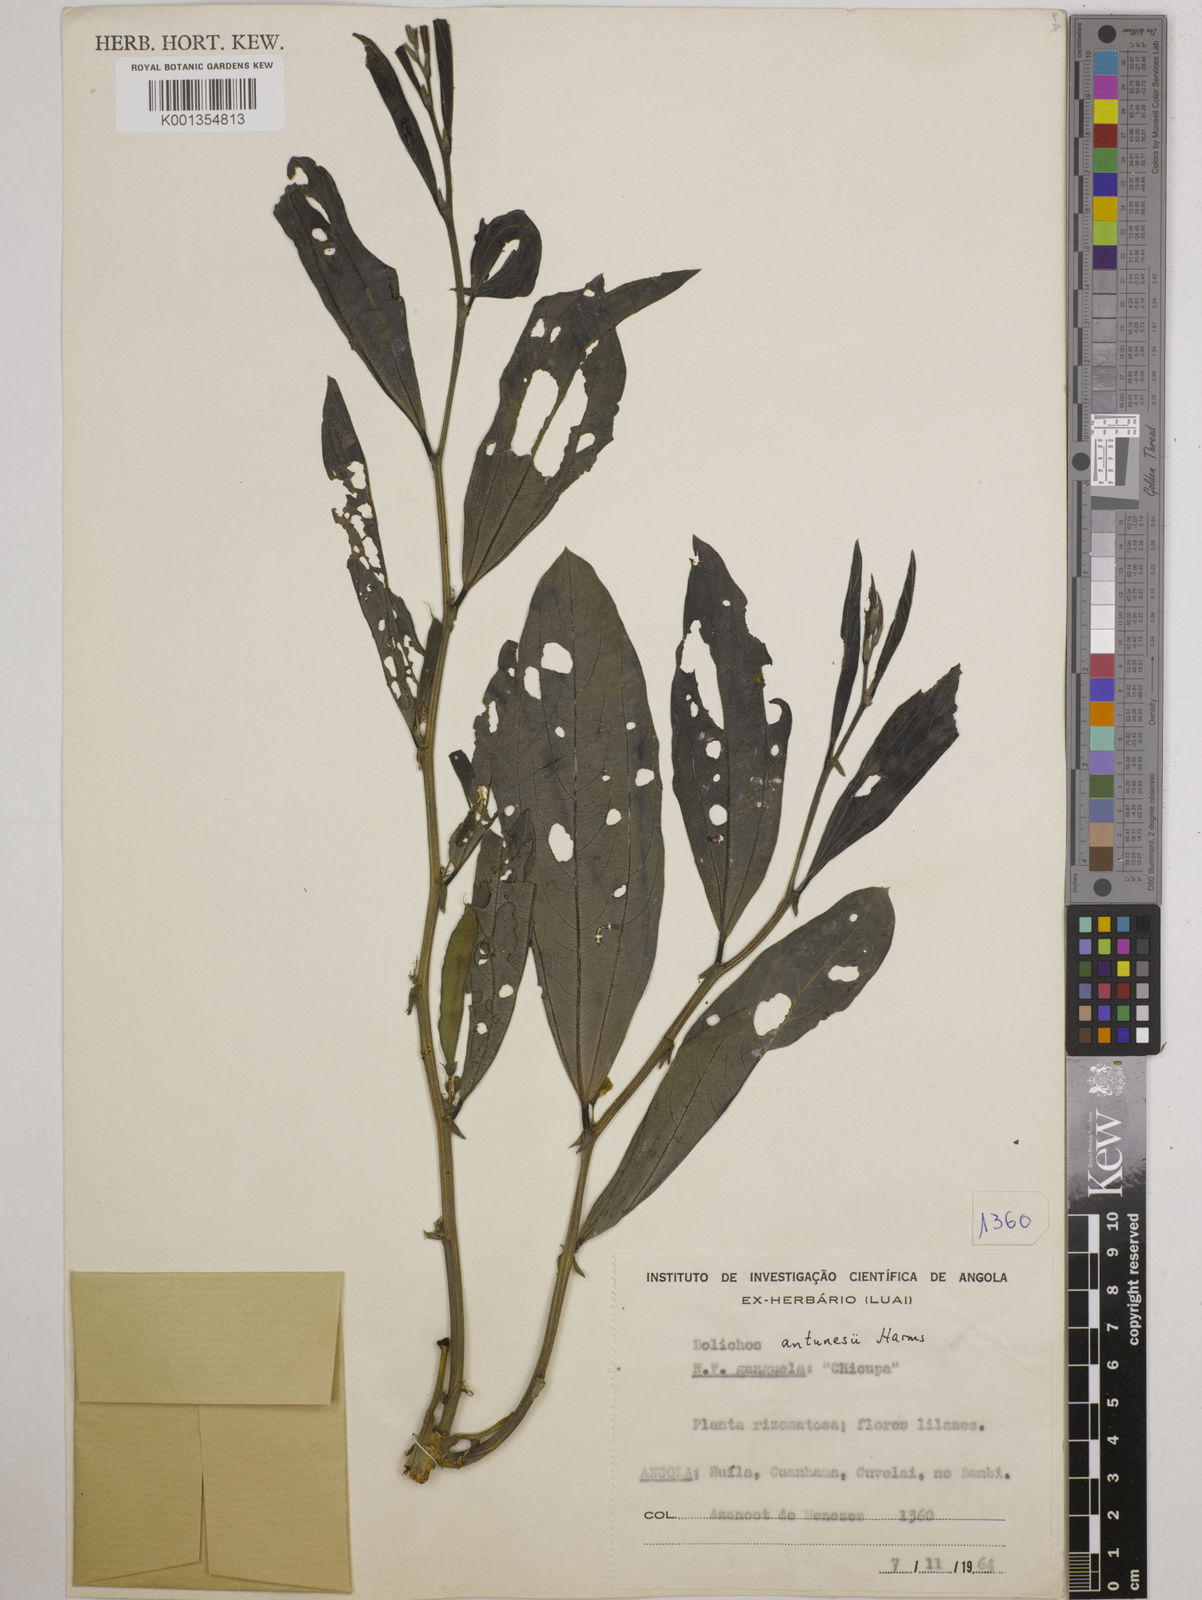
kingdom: Plantae
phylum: Tracheophyta
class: Magnoliopsida
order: Fabales
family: Fabaceae
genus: Dolichos
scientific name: Dolichos antunesii
